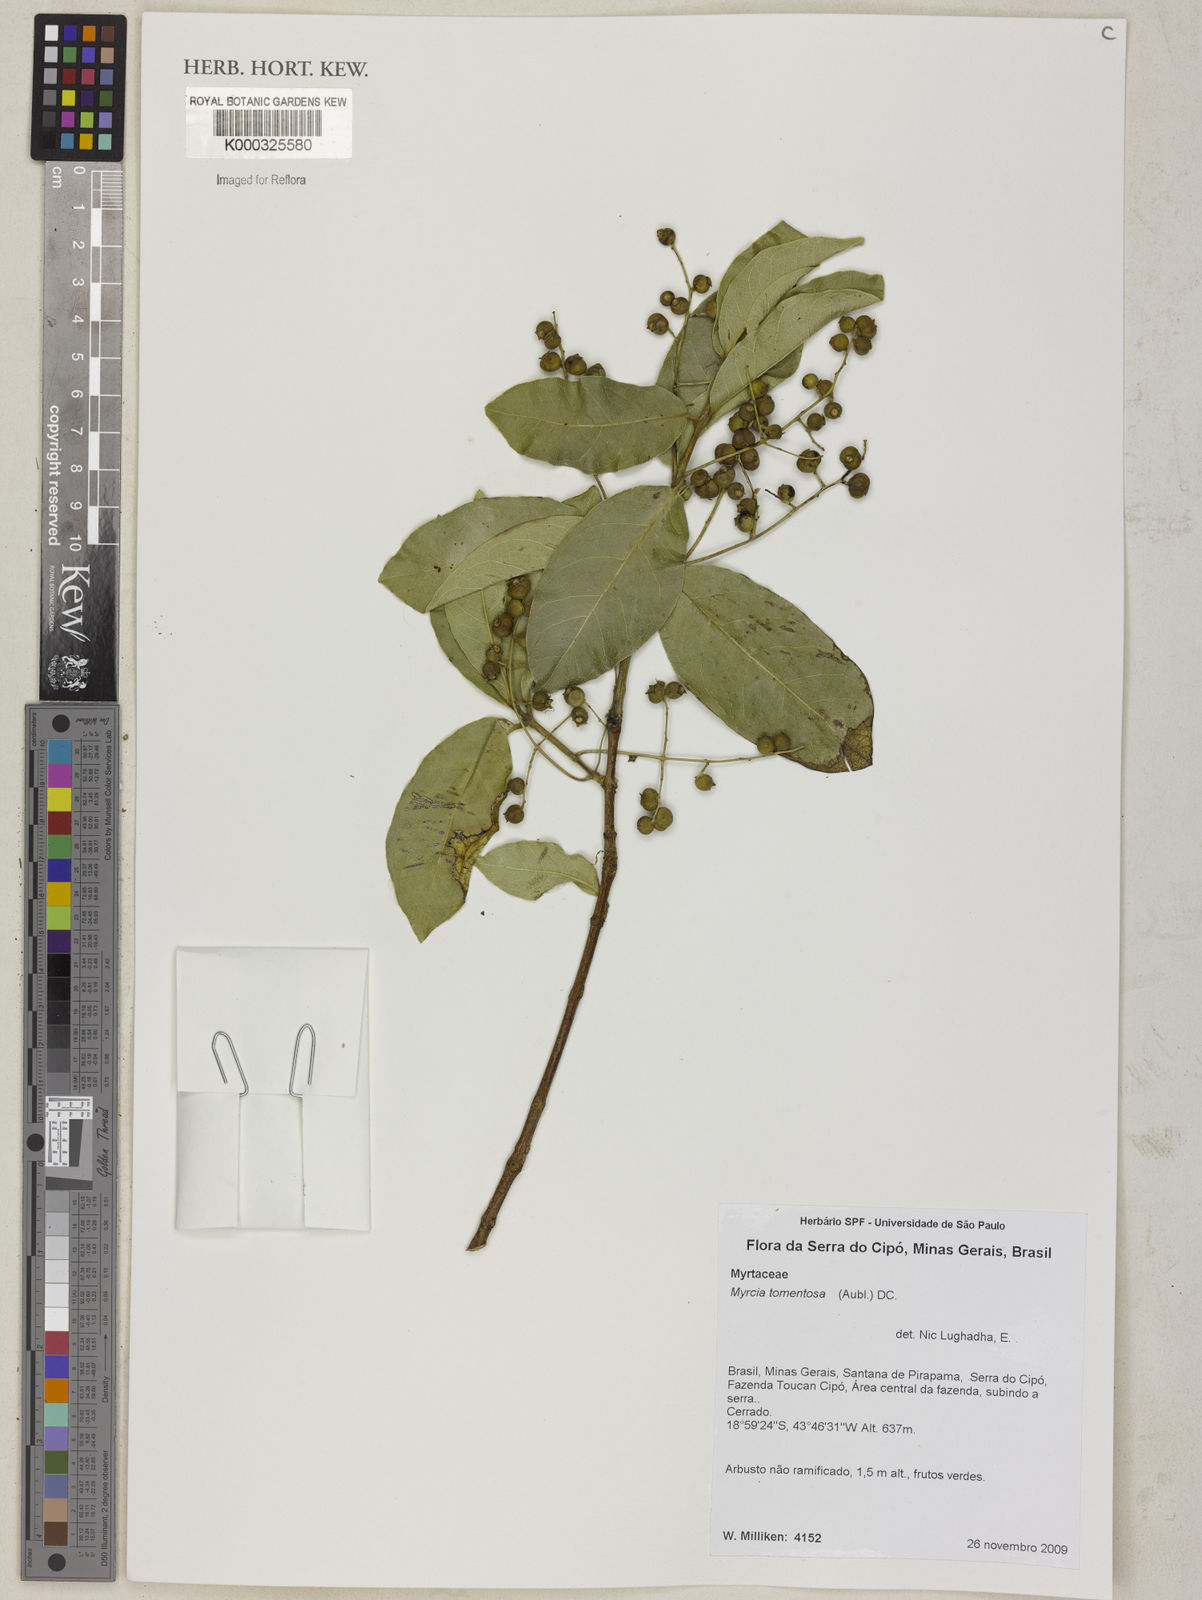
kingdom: Plantae
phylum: Tracheophyta
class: Magnoliopsida
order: Myrtales
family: Myrtaceae
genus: Myrcia
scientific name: Myrcia tomentosa
